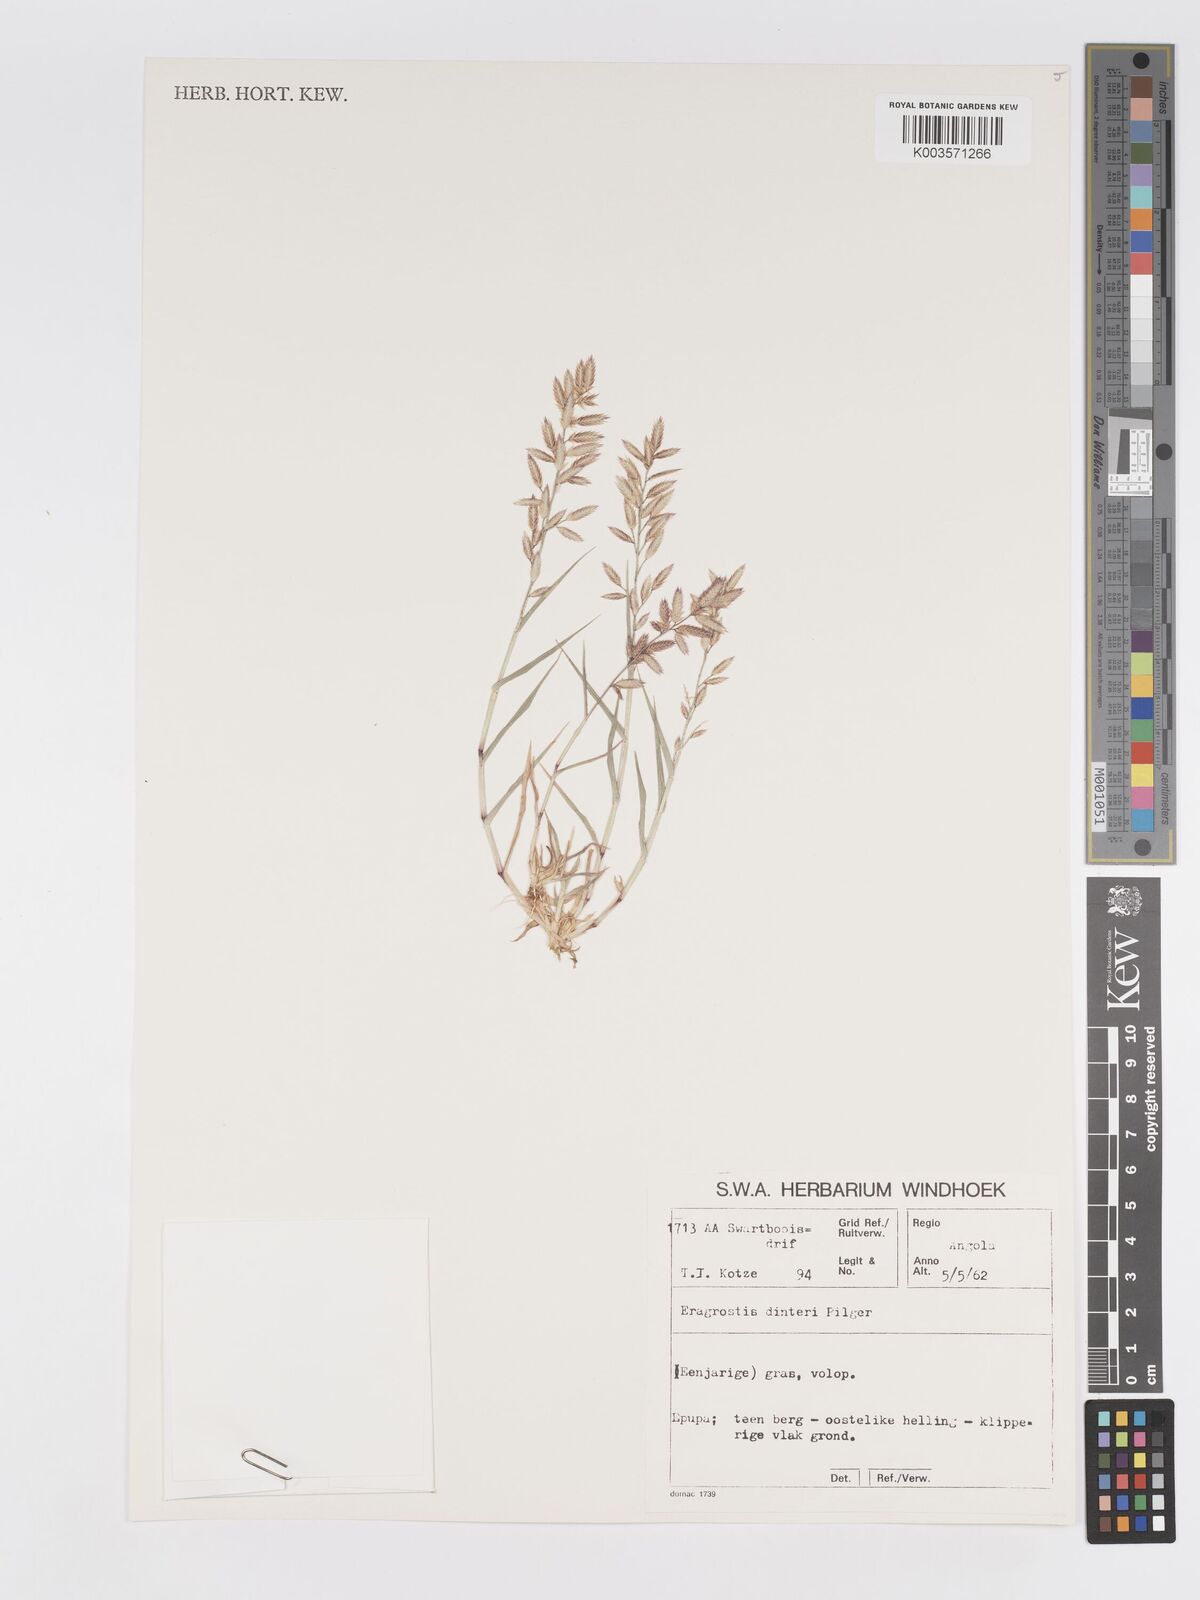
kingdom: Plantae
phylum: Tracheophyta
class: Liliopsida
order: Poales
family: Poaceae
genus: Eragrostis
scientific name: Eragrostis dinteri
